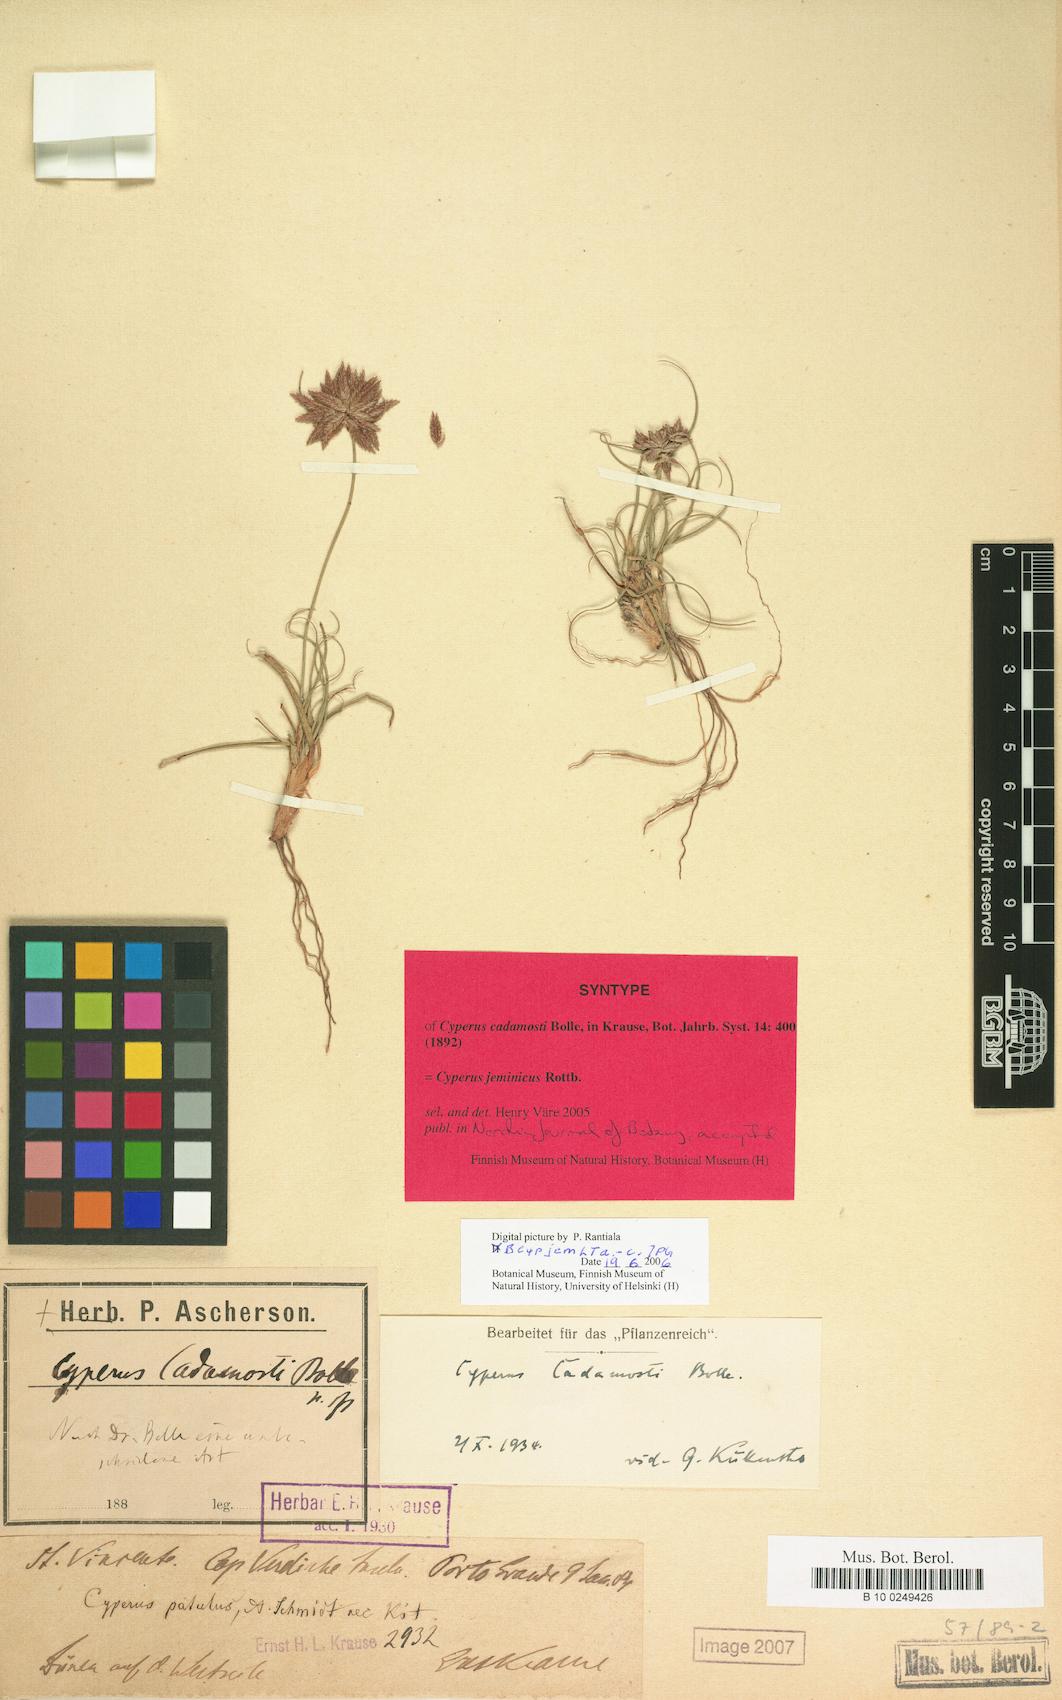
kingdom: Plantae
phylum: Tracheophyta
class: Liliopsida
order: Poales
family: Cyperaceae
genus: Cyperus
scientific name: Cyperus jeminicus
